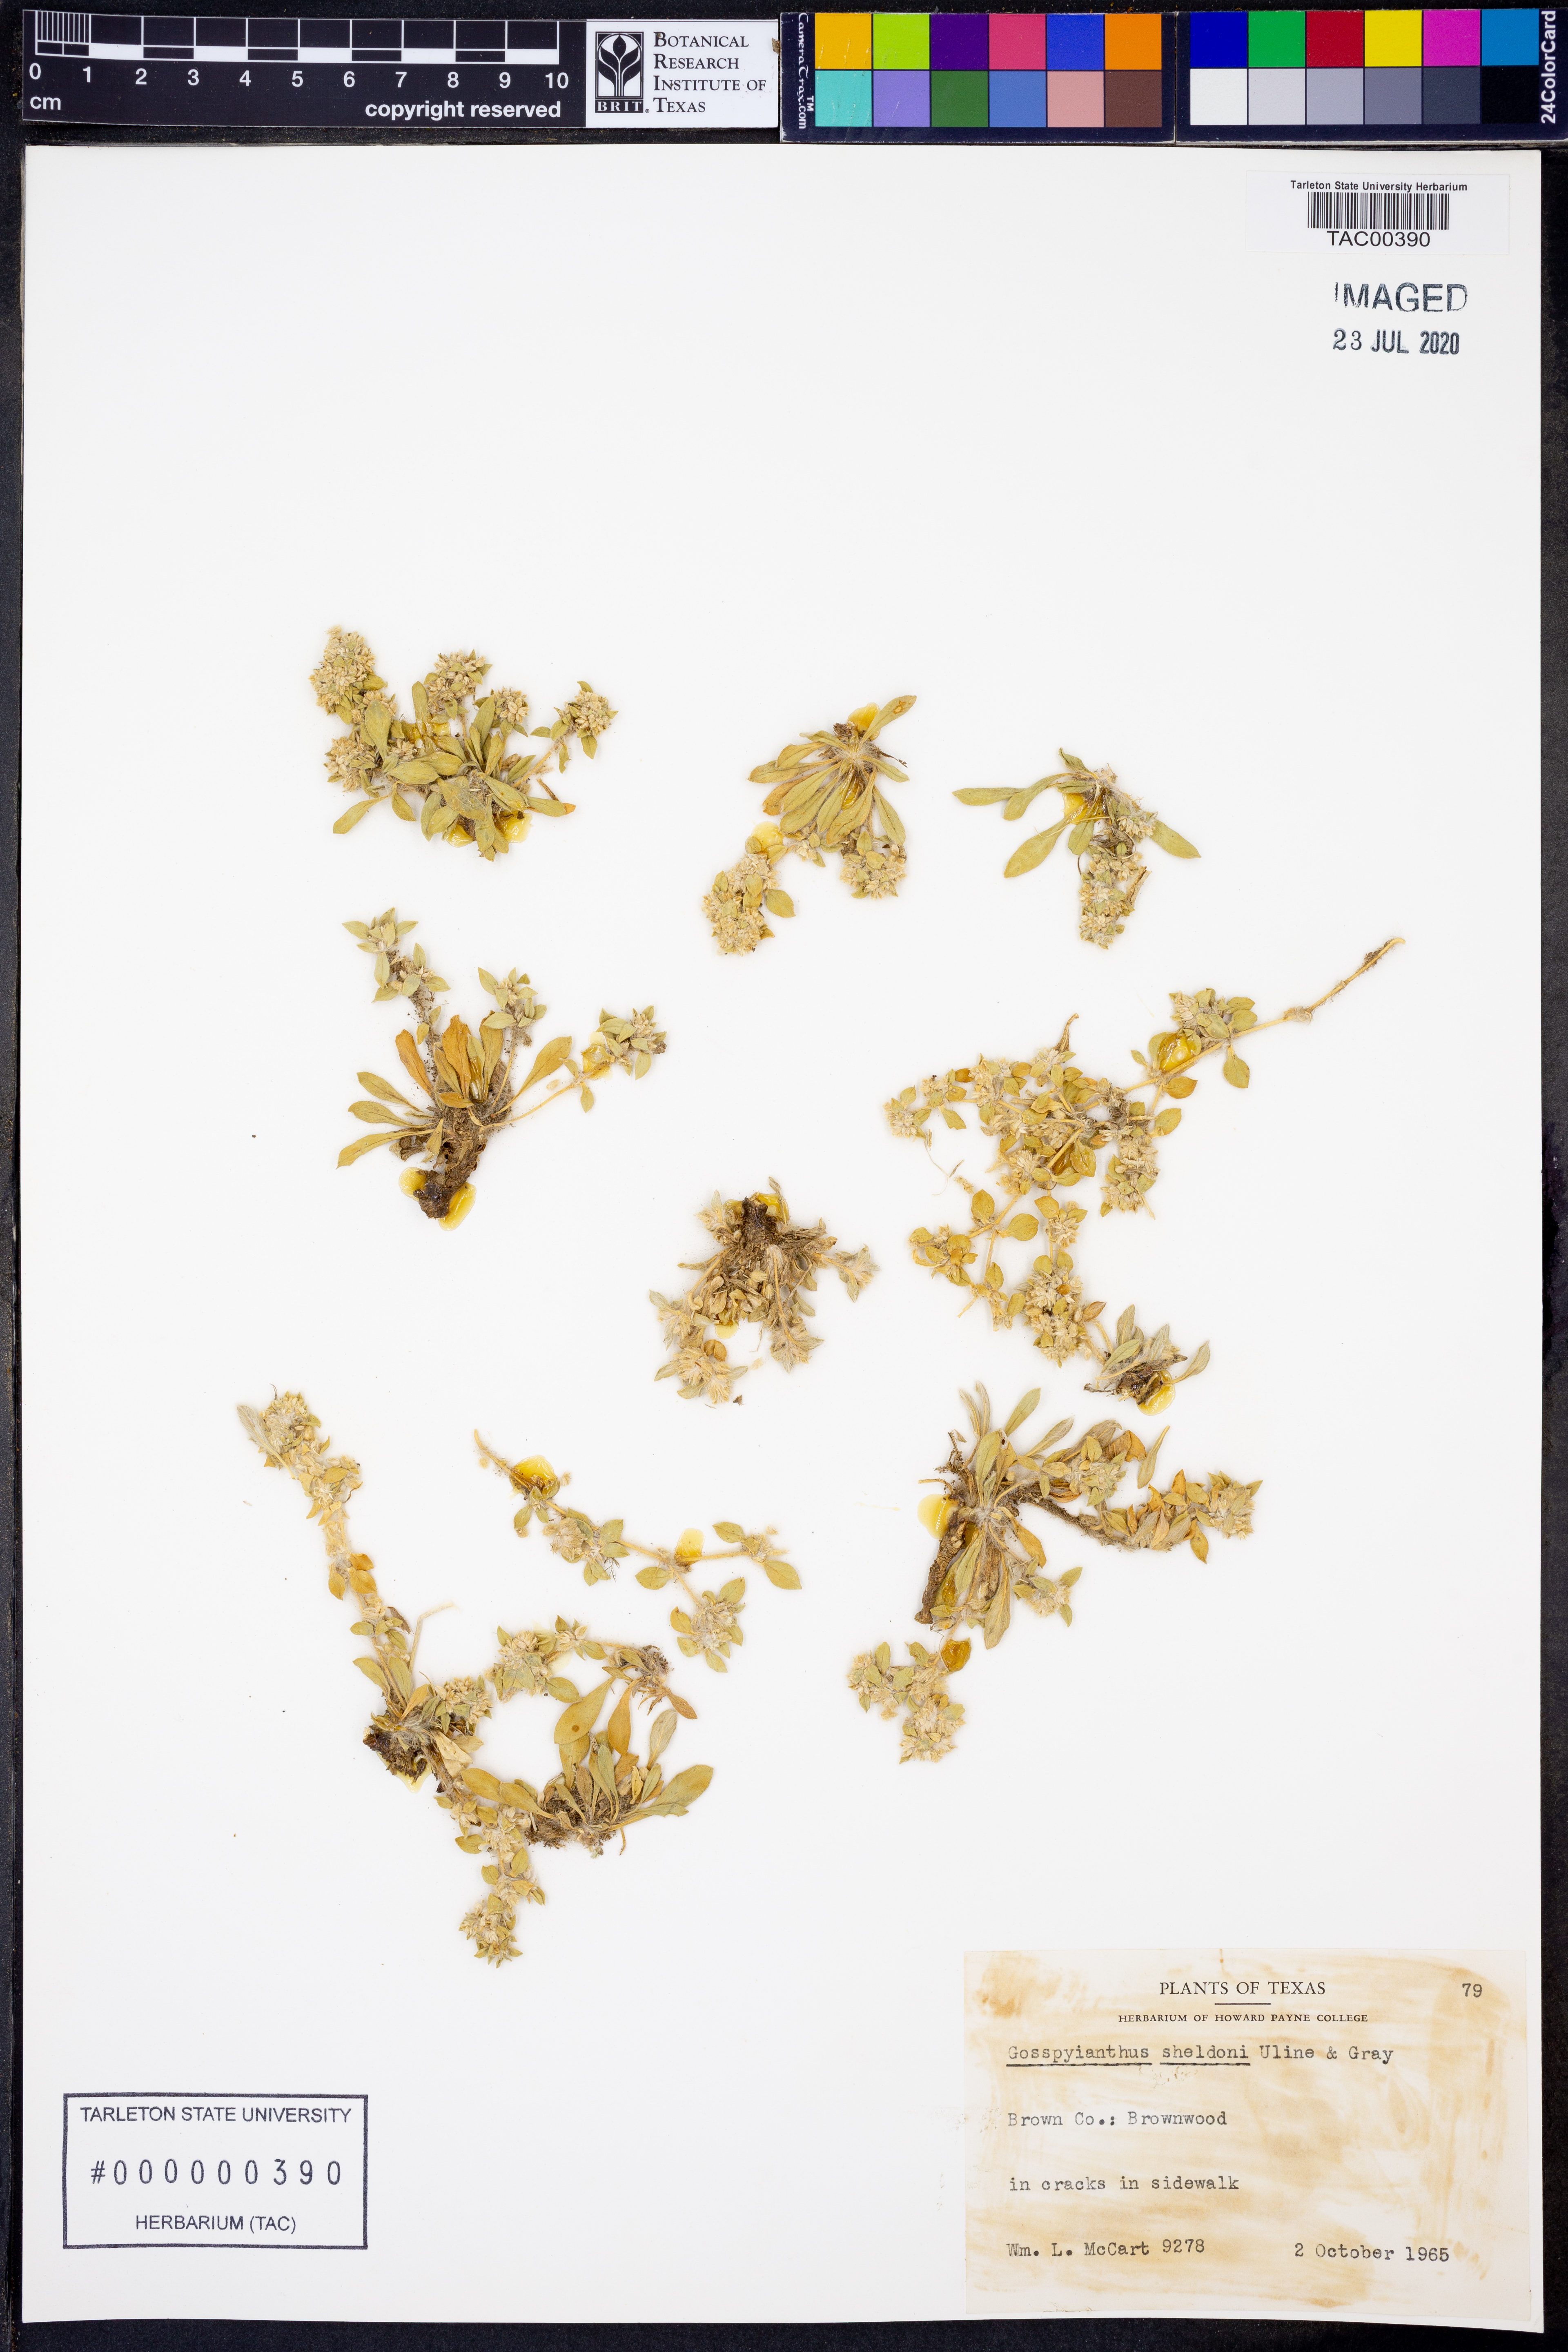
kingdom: Plantae
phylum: Tracheophyta
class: Magnoliopsida
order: Caryophyllales
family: Amaranthaceae
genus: Gomphrena
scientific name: Gomphrena lanuparonychioides
